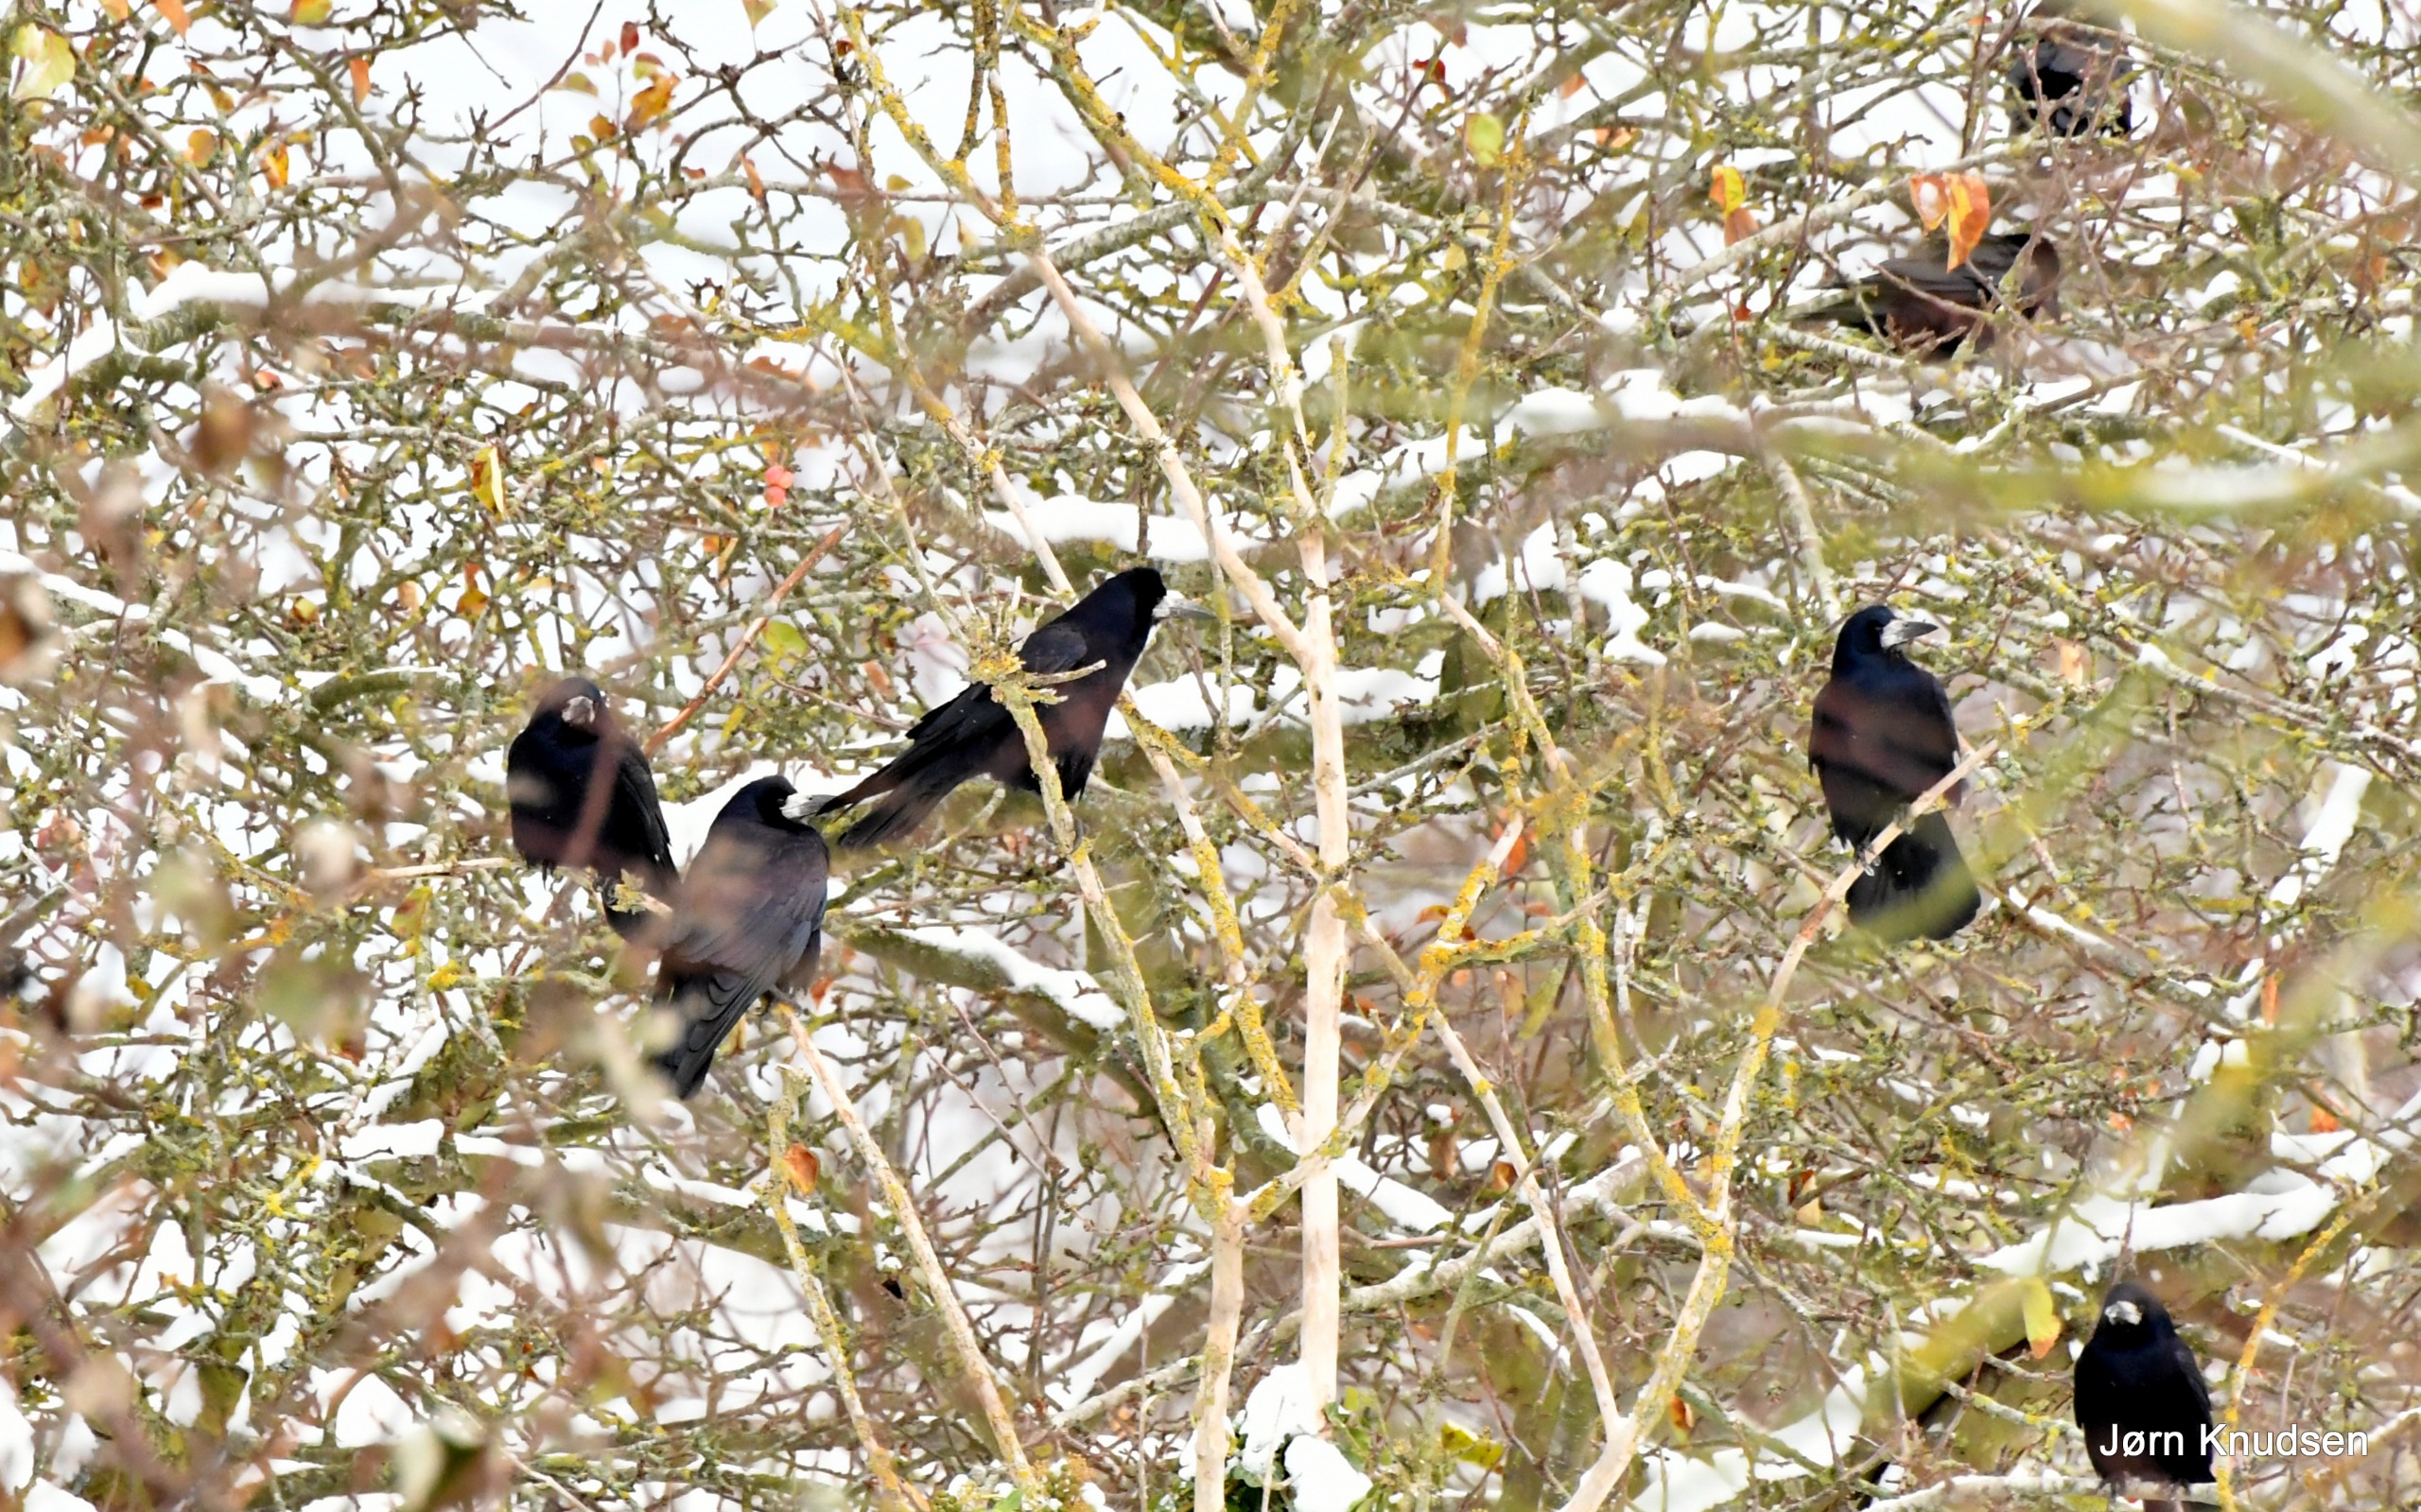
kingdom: Animalia
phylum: Chordata
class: Aves
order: Passeriformes
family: Corvidae
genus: Corvus
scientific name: Corvus frugilegus
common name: Råge
